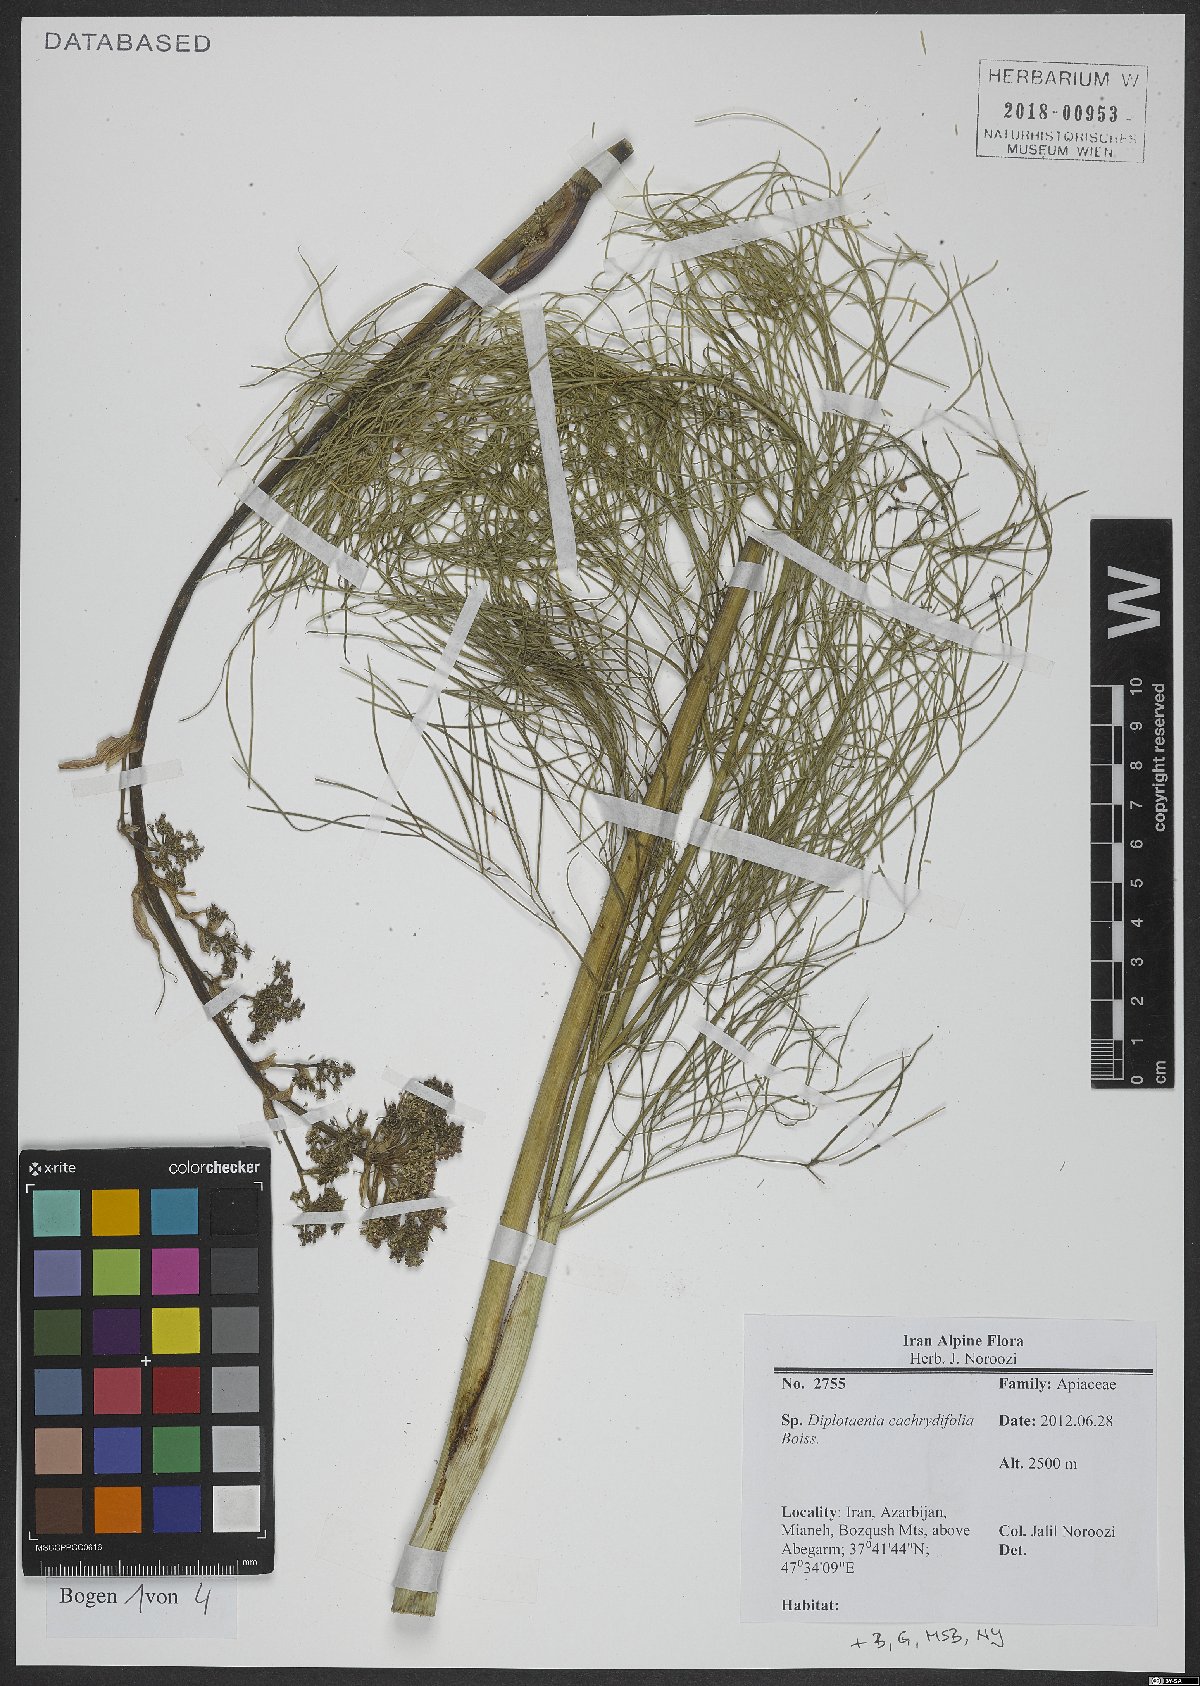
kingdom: Plantae
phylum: Tracheophyta
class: Magnoliopsida
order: Apiales
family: Apiaceae
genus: Diplotaenia
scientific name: Diplotaenia cachrydifolia
